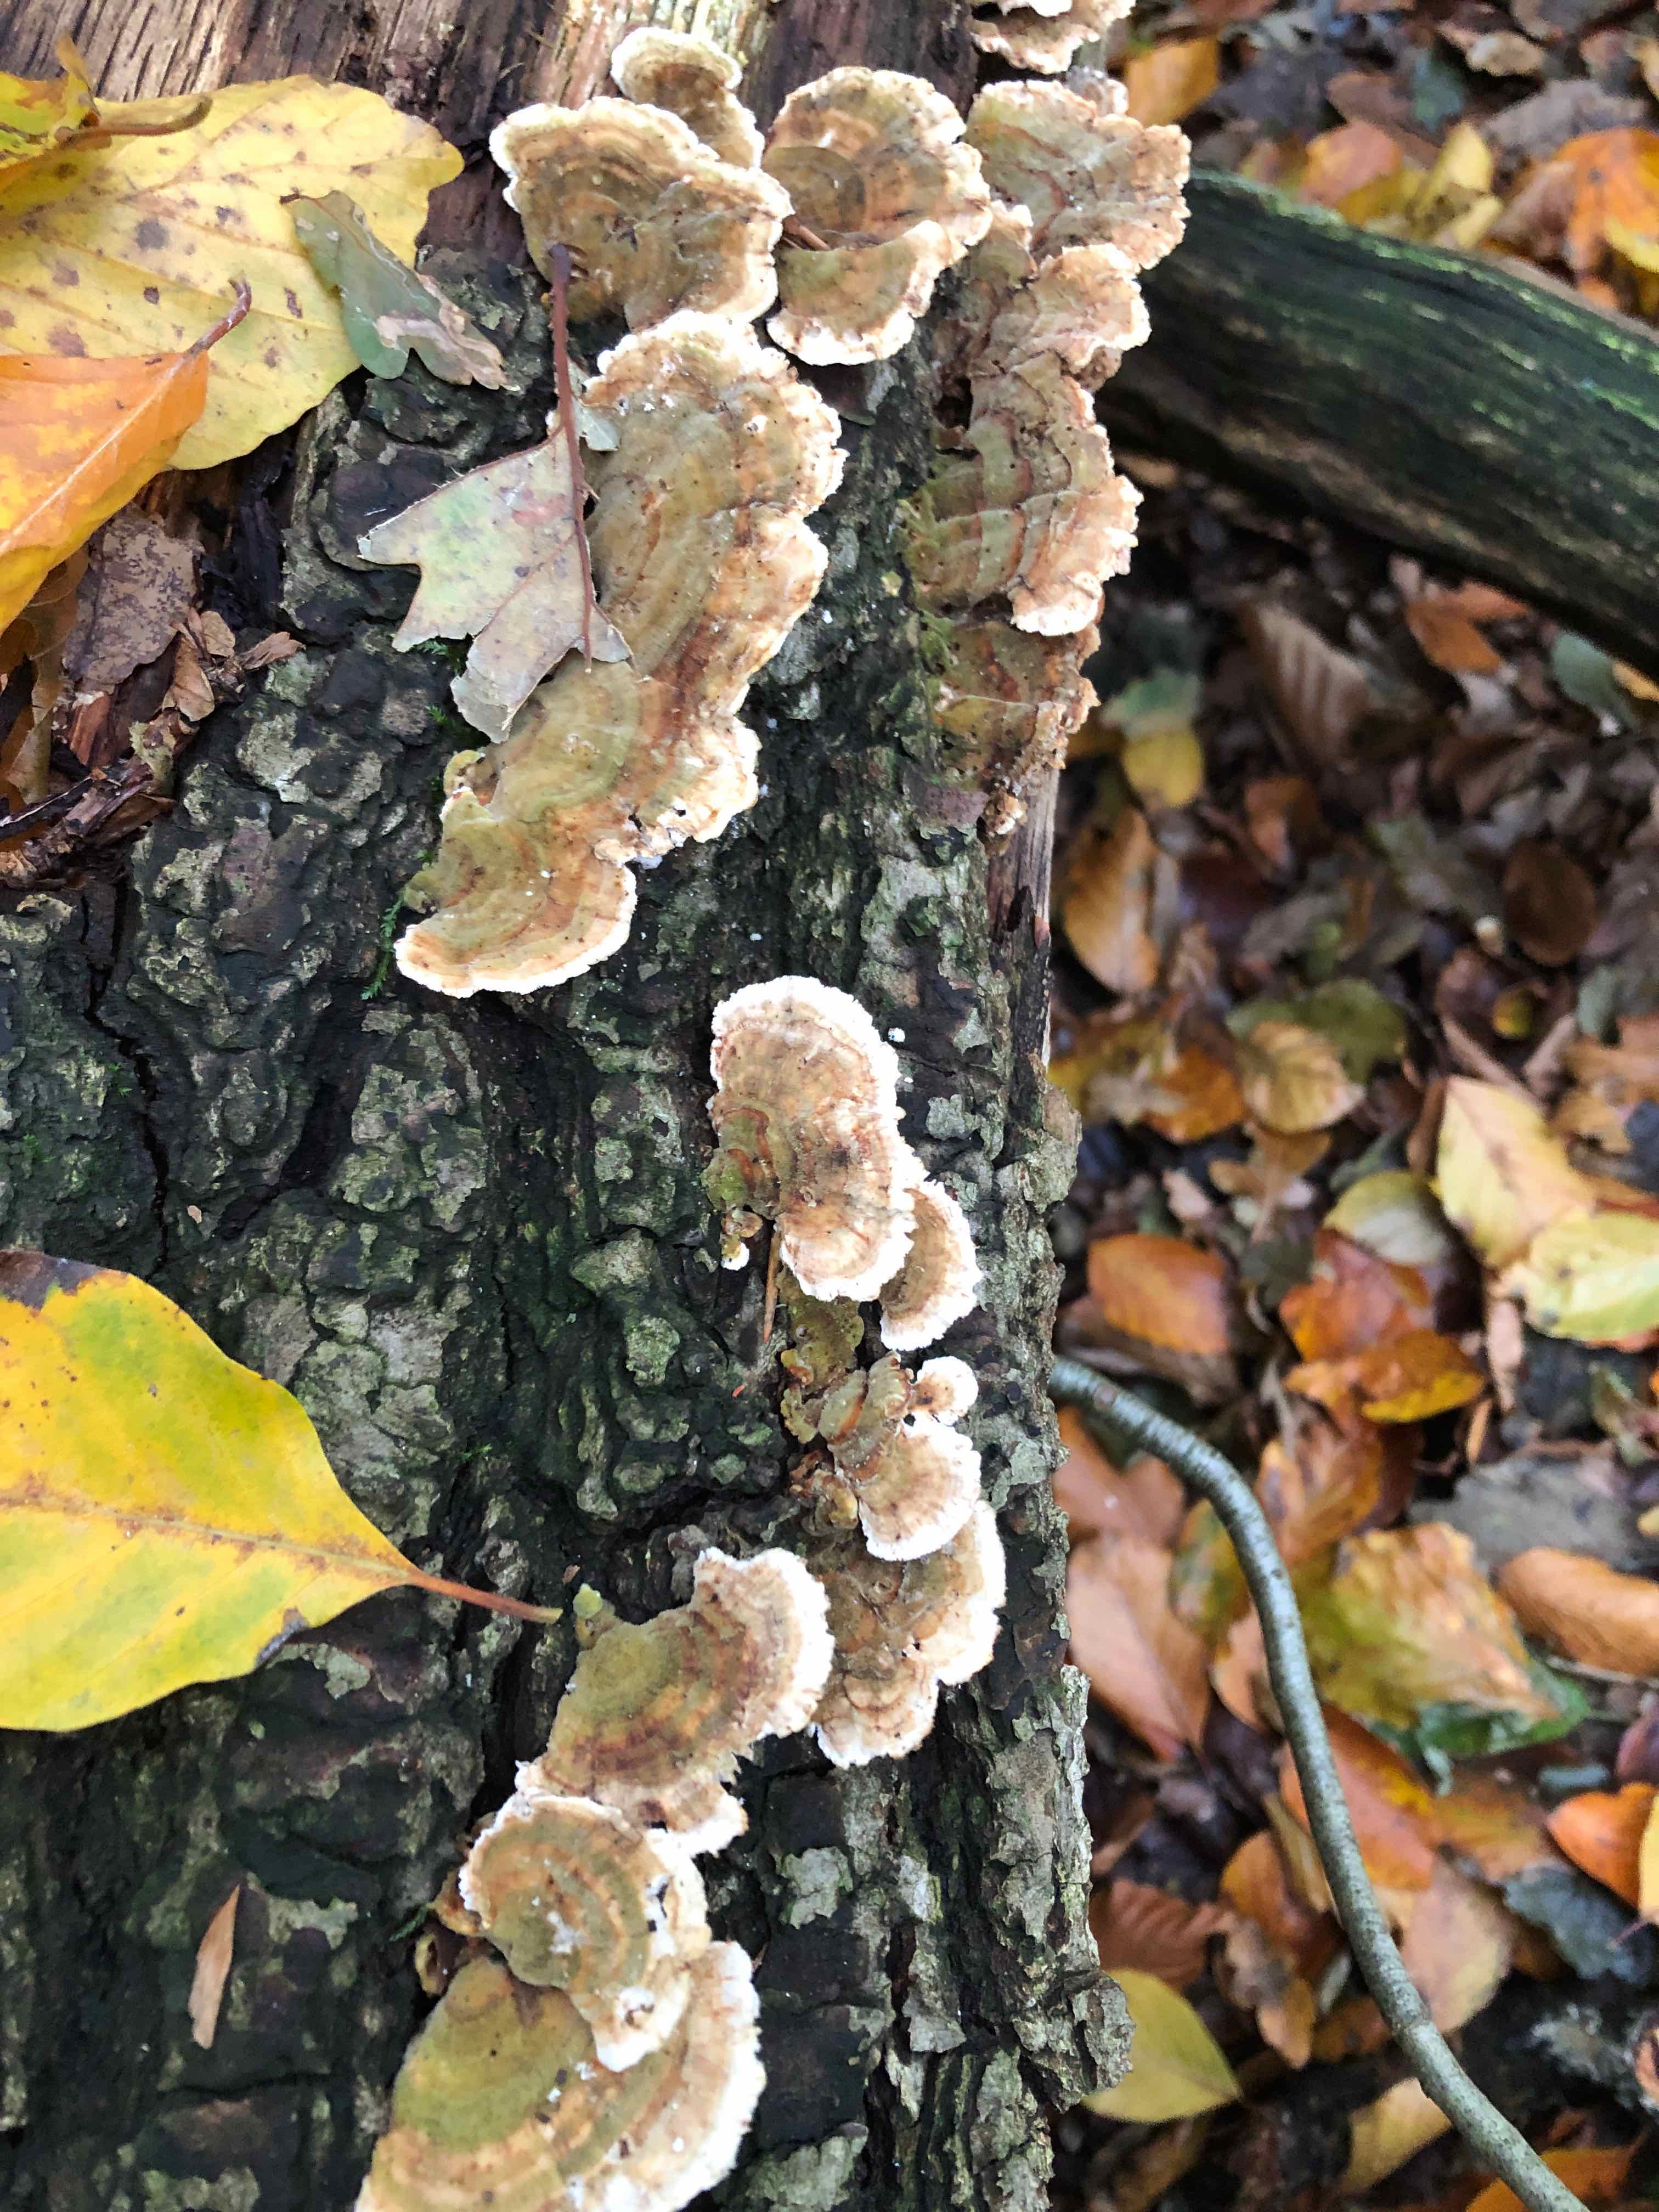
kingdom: Fungi
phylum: Basidiomycota
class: Agaricomycetes
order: Polyporales
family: Polyporaceae
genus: Trametes
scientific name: Trametes versicolor
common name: broget læderporesvamp
